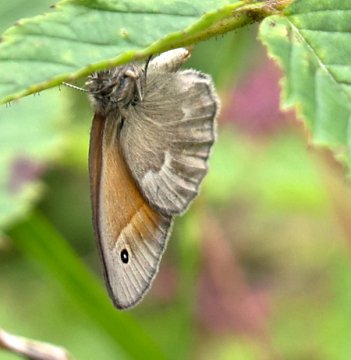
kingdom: Animalia
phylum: Arthropoda
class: Insecta
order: Lepidoptera
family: Nymphalidae
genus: Coenonympha
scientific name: Coenonympha tullia
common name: Large Heath
